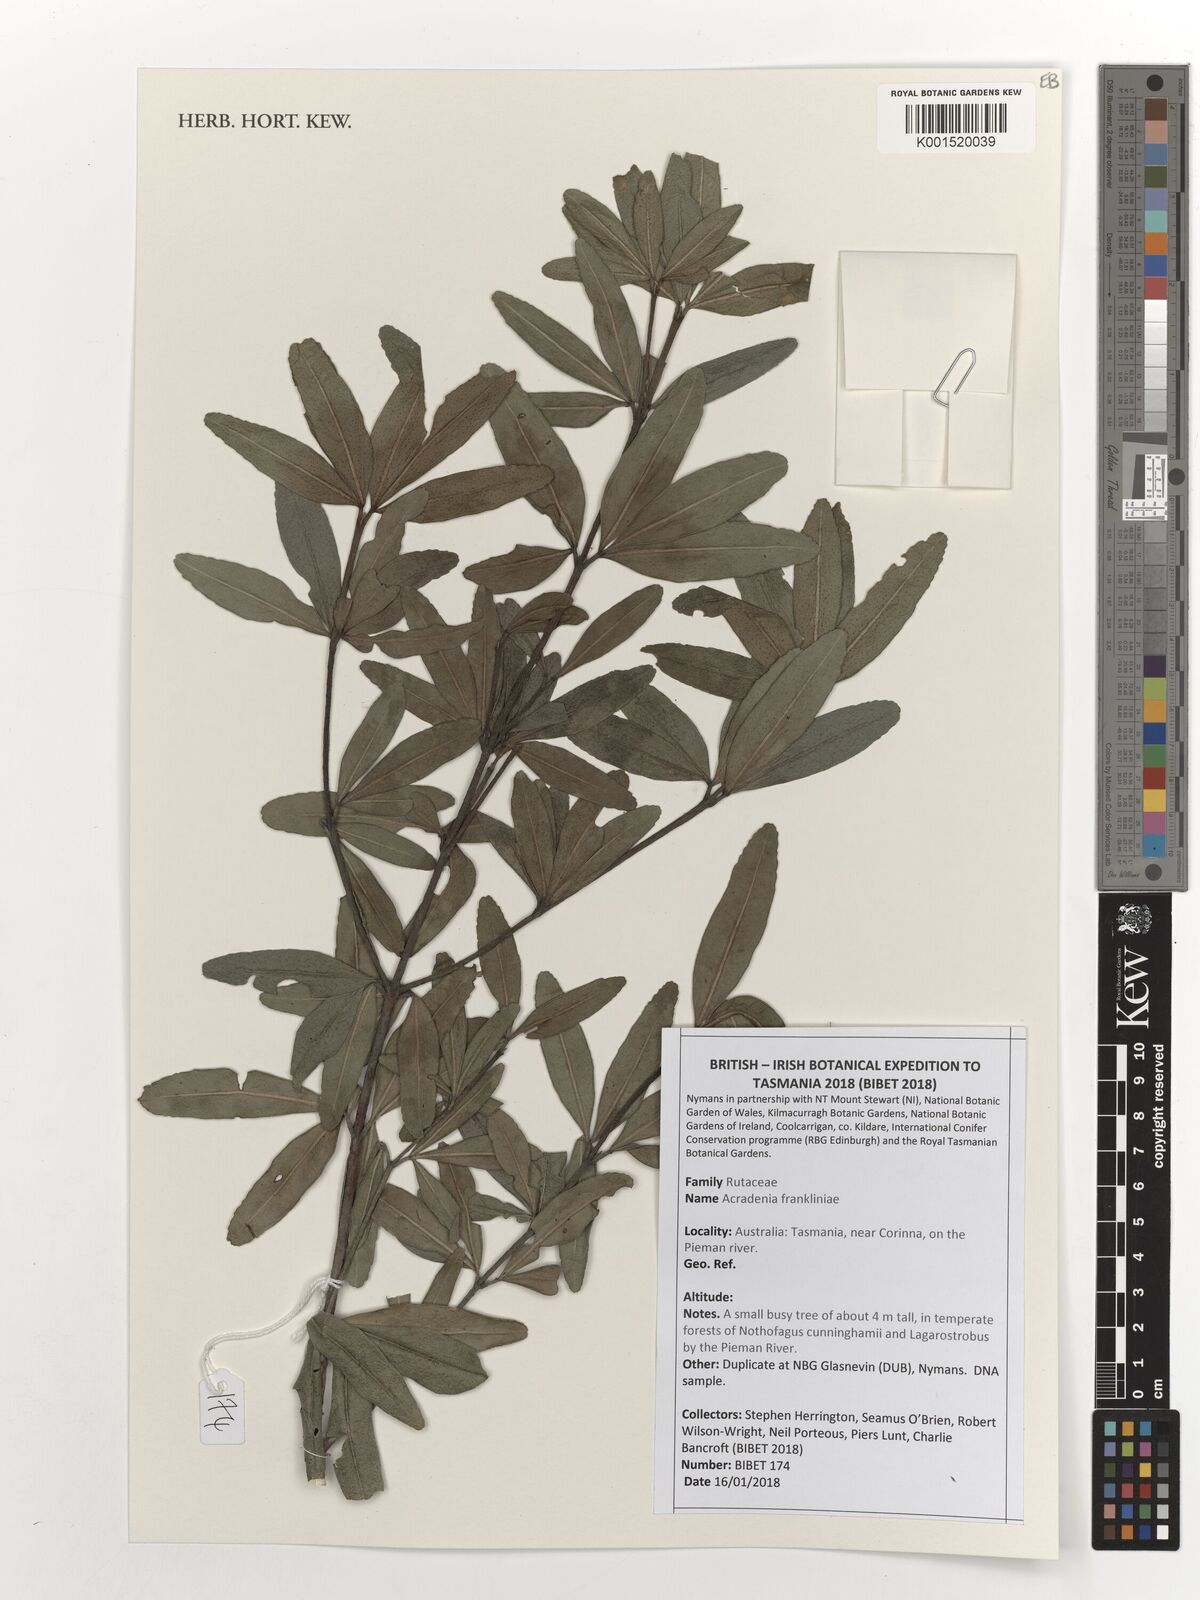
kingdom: Plantae
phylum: Tracheophyta
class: Magnoliopsida
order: Sapindales
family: Rutaceae
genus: Acradenia
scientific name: Acradenia frankliniae
